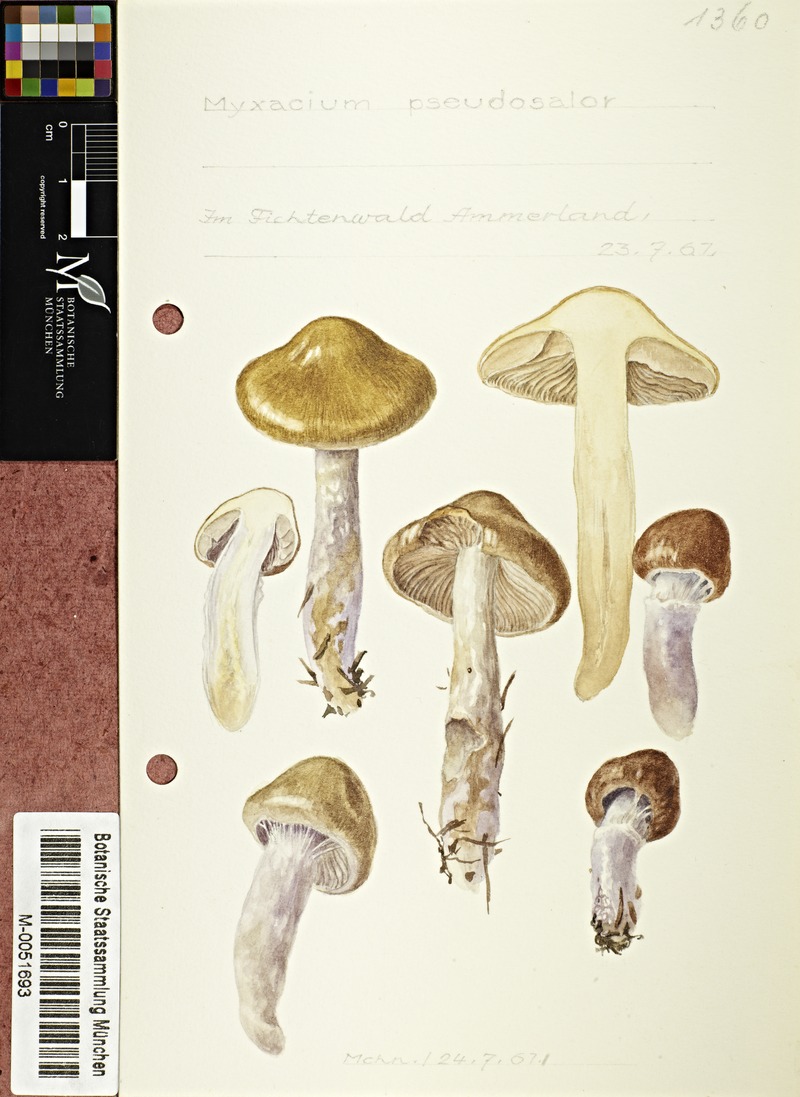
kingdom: Fungi
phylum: Basidiomycota
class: Agaricomycetes
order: Agaricales
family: Cortinariaceae
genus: Cortinarius
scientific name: Cortinarius pseudosalor
